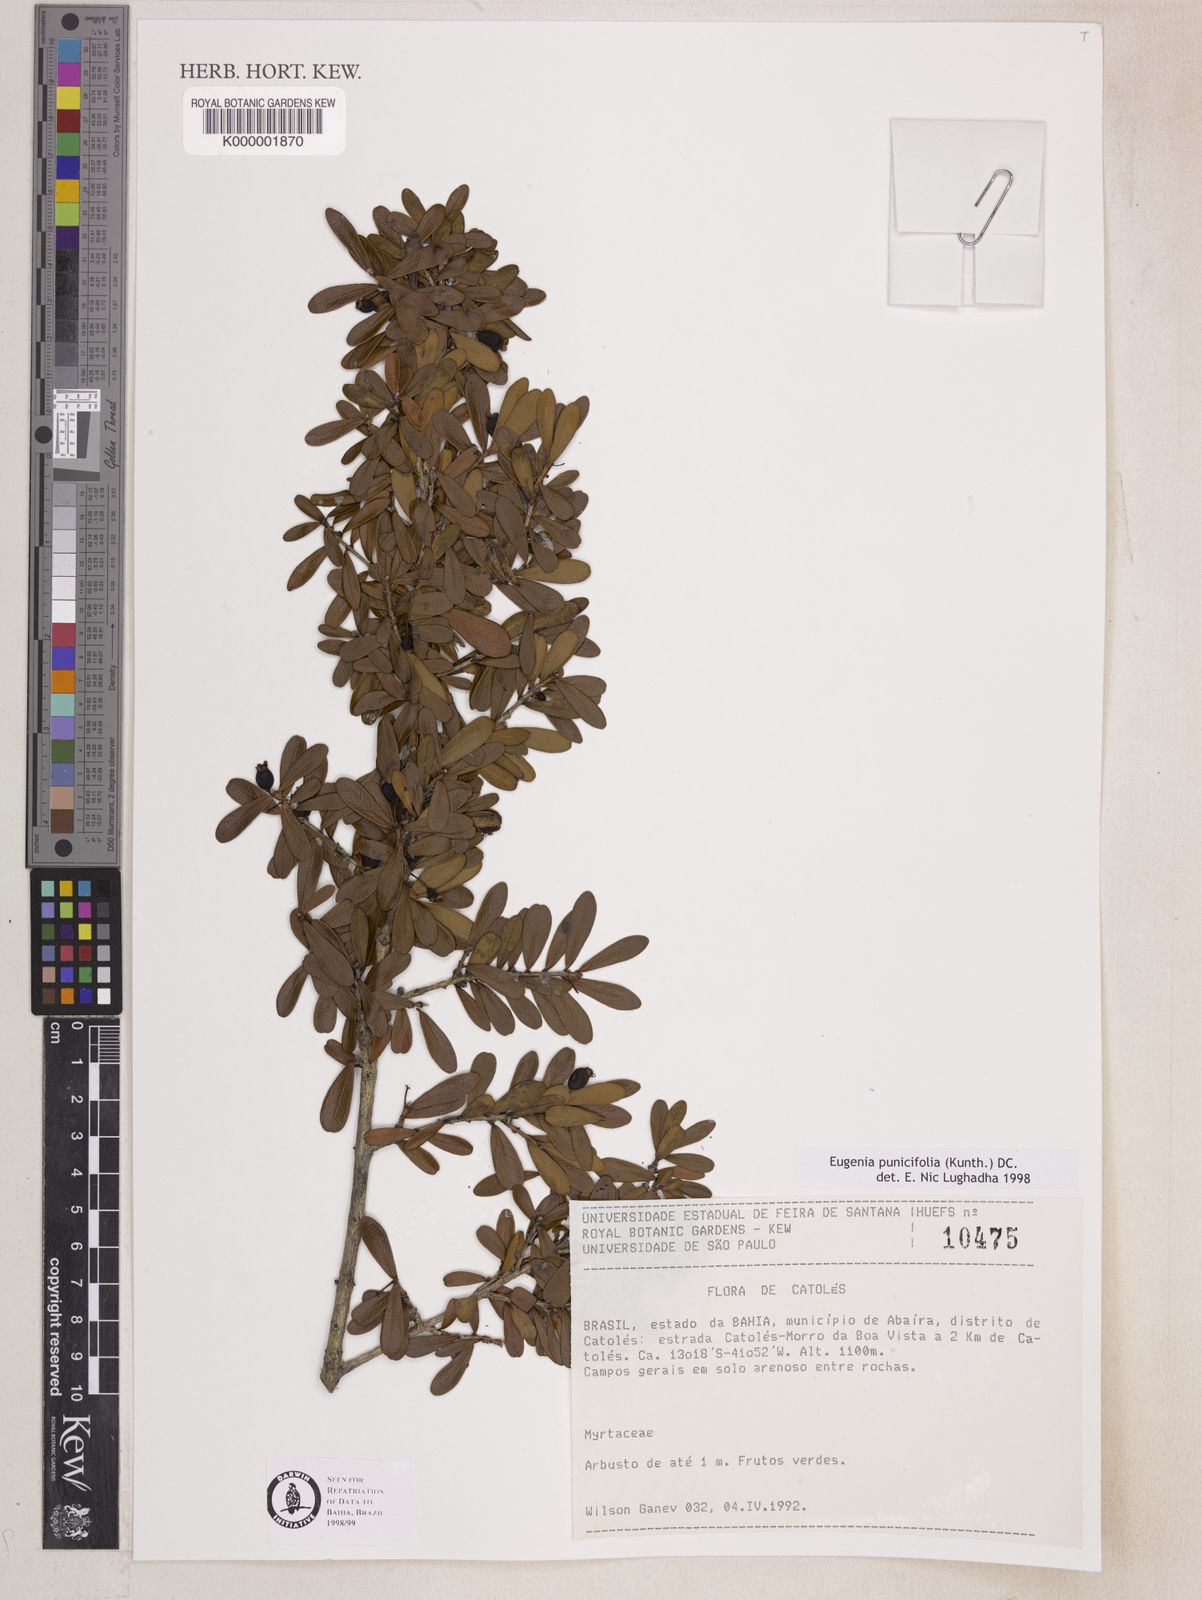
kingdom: Plantae
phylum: Tracheophyta
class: Magnoliopsida
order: Myrtales
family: Myrtaceae
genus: Eugenia
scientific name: Eugenia punicifolia
